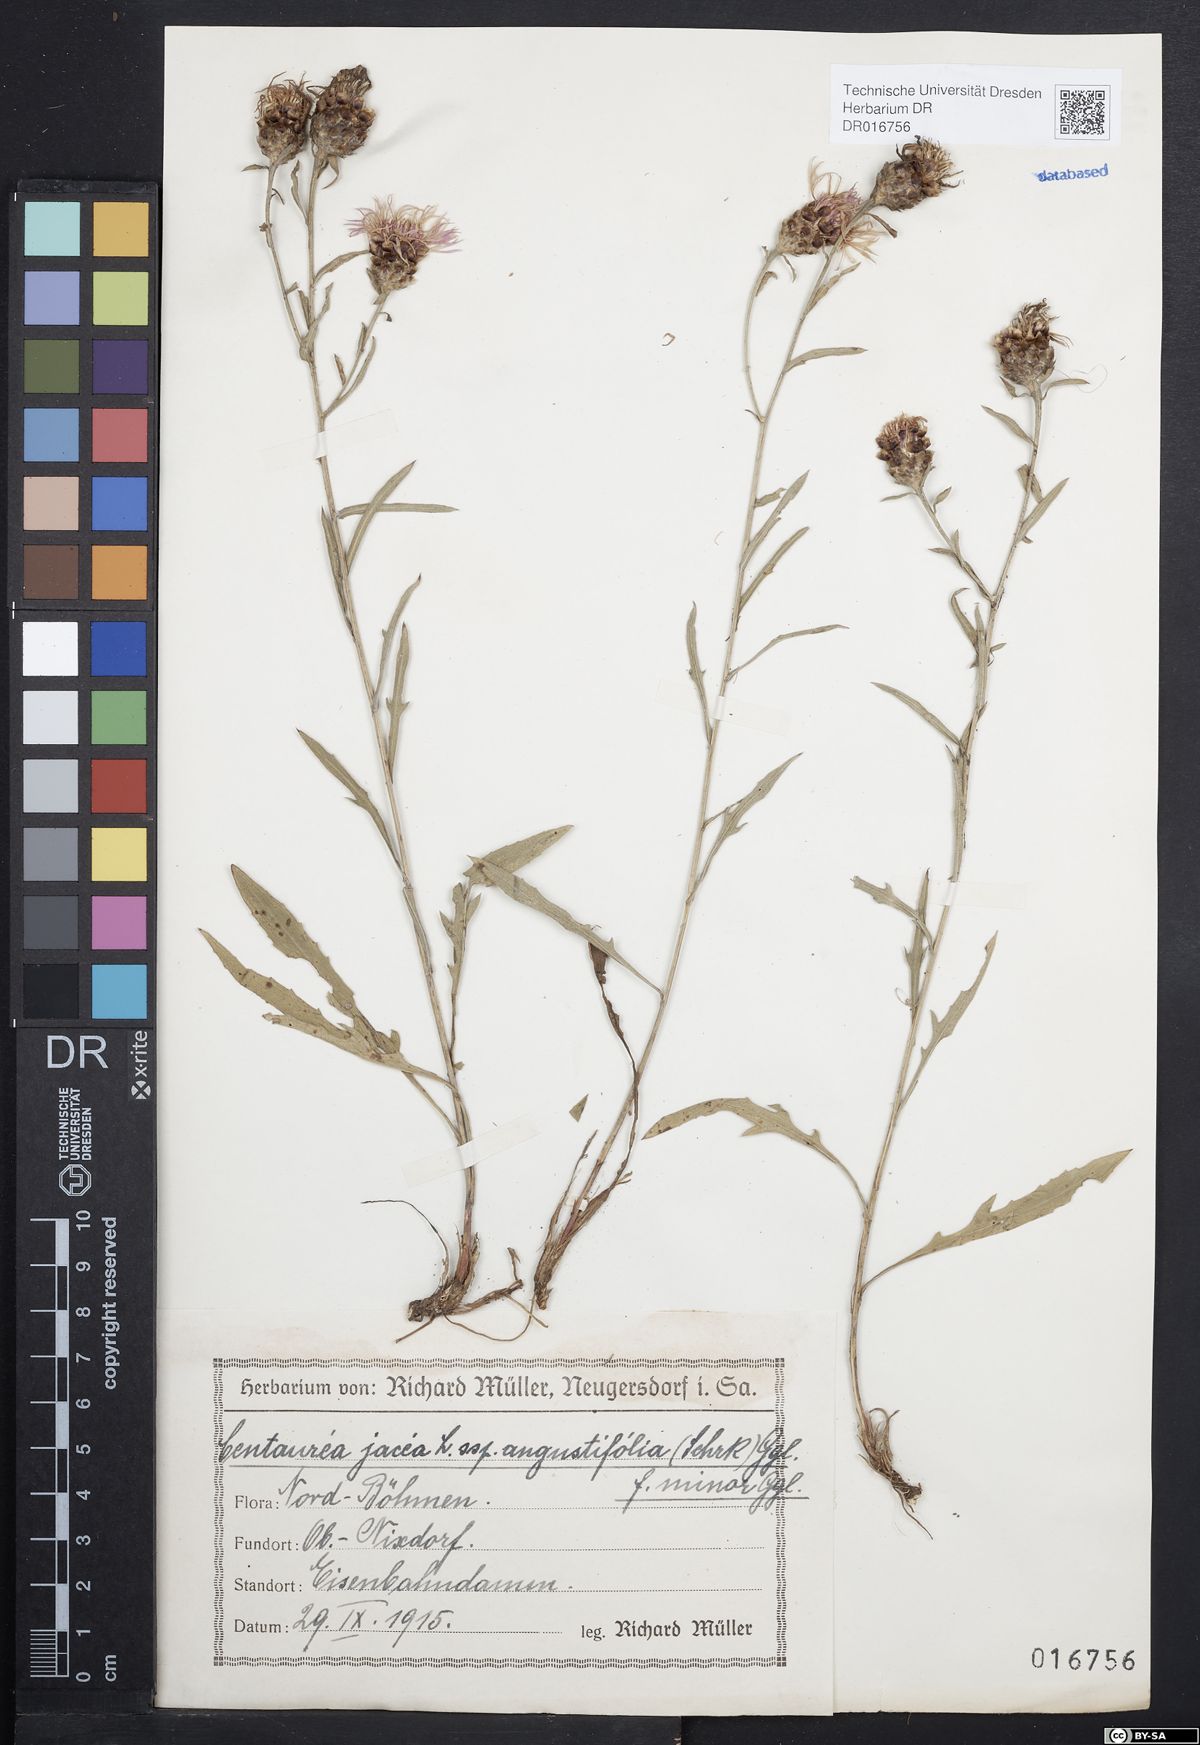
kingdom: Plantae
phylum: Tracheophyta
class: Magnoliopsida
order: Asterales
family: Asteraceae
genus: Centaurea
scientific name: Centaurea pannonica
